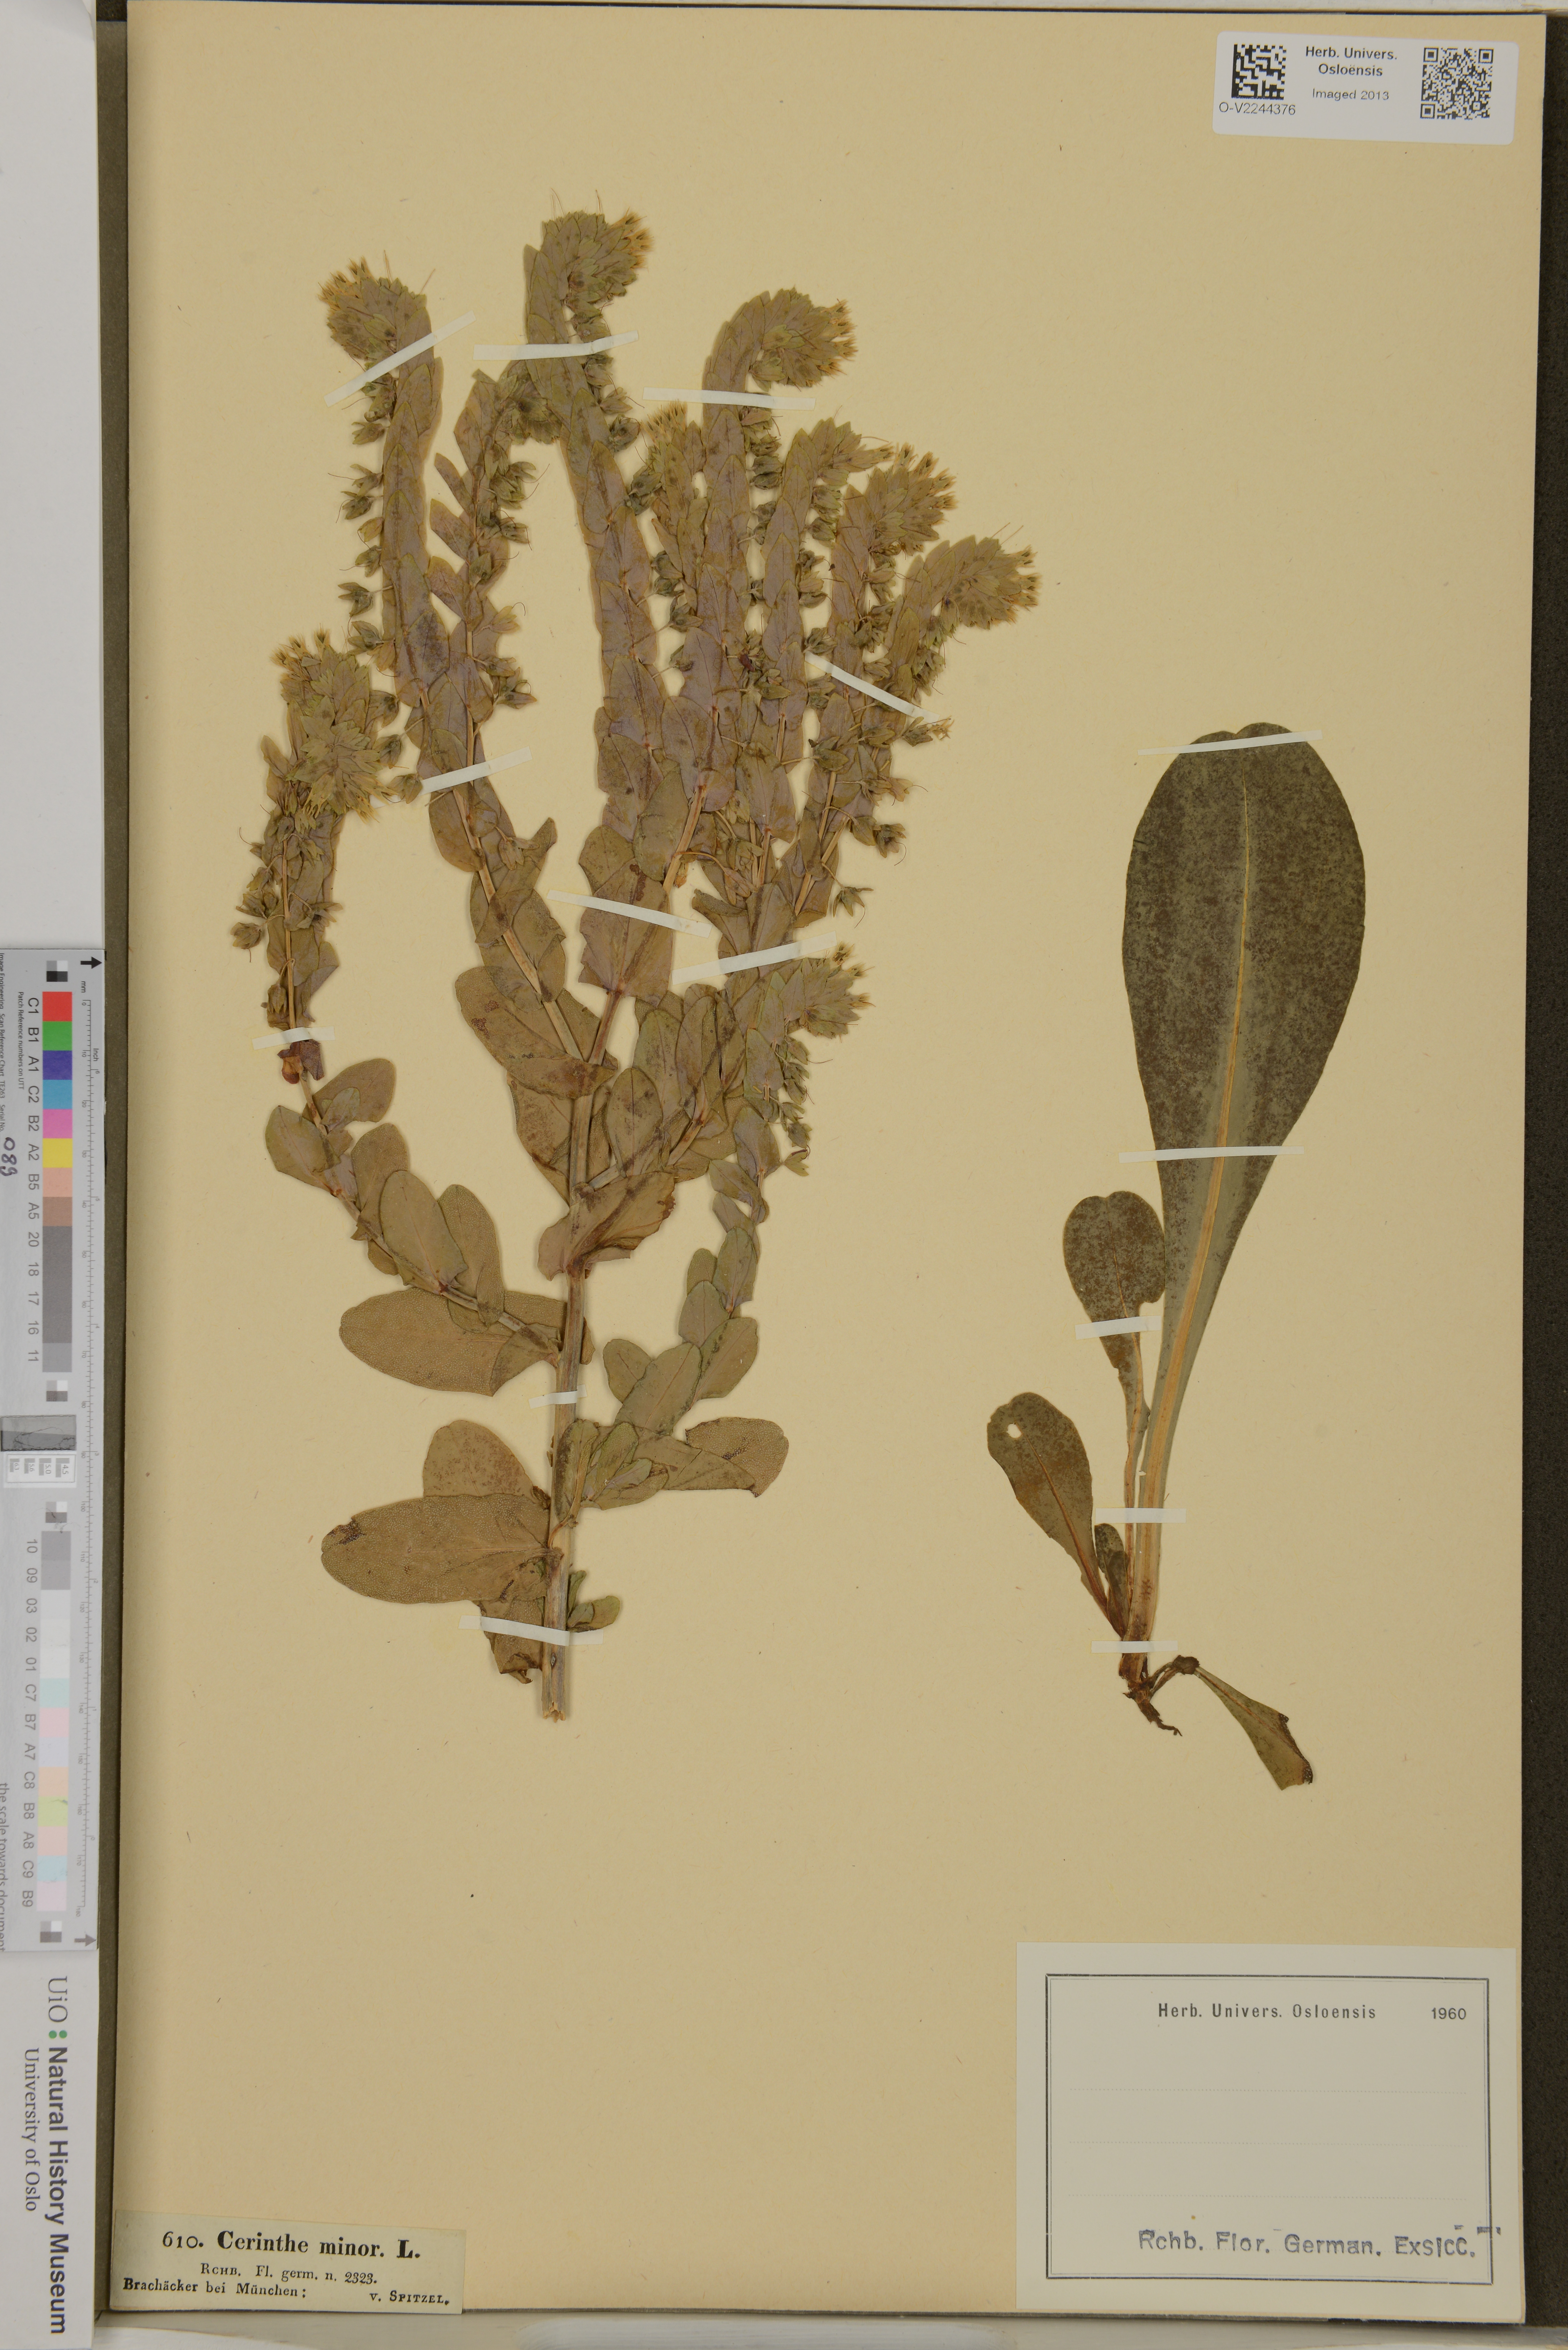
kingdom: Plantae
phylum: Tracheophyta
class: Magnoliopsida
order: Boraginales
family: Boraginaceae
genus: Cerinthe
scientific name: Cerinthe minor
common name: Lesser honeywort
